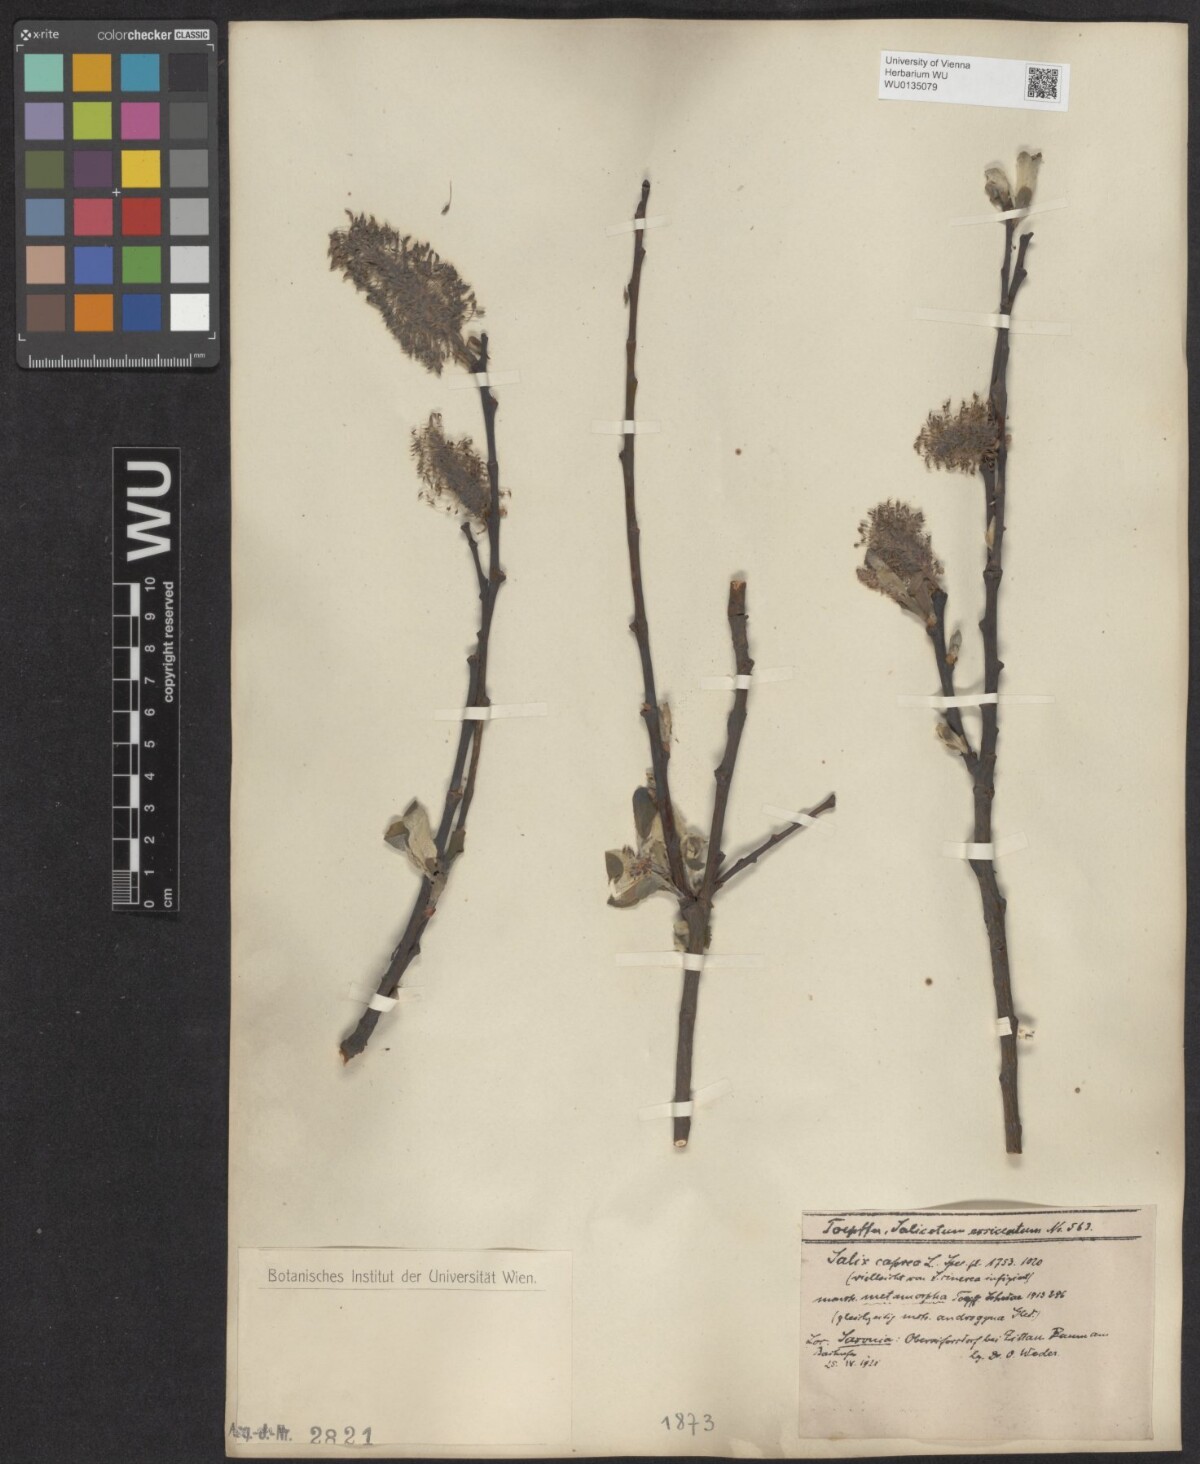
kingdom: Plantae
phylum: Tracheophyta
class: Magnoliopsida
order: Malpighiales
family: Salicaceae
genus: Salix
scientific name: Salix caprea
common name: Goat willow
